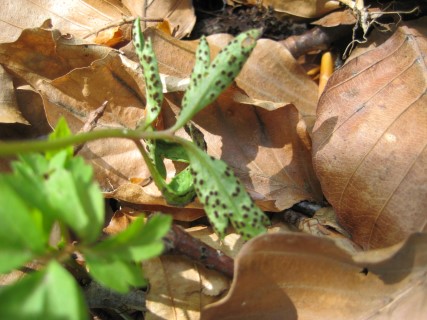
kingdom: Fungi
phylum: Basidiomycota
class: Pucciniomycetes
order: Pucciniales
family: Tranzscheliaceae
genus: Tranzschelia
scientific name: Tranzschelia anemones
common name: anemone-knæksporerust
